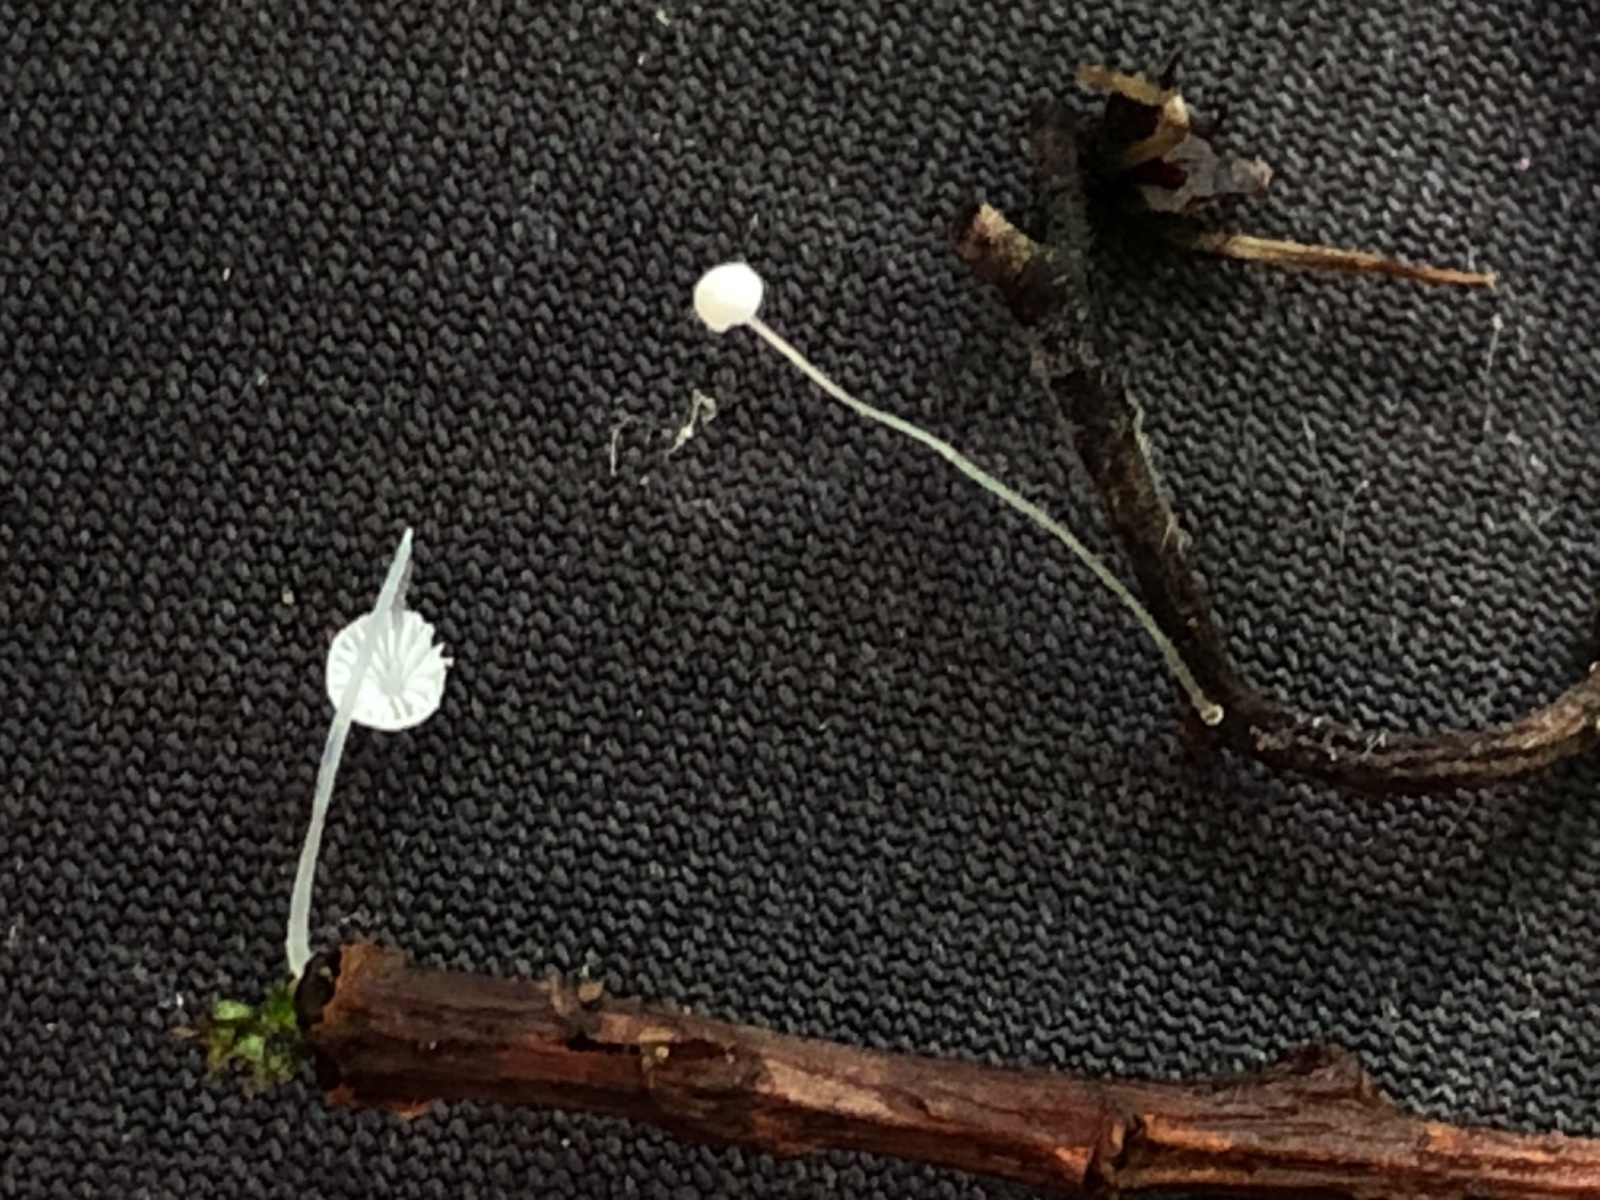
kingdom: Fungi
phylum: Basidiomycota
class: Agaricomycetes
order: Agaricales
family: Mycenaceae
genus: Mycena
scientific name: Mycena tenerrima
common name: pudret huesvamp
